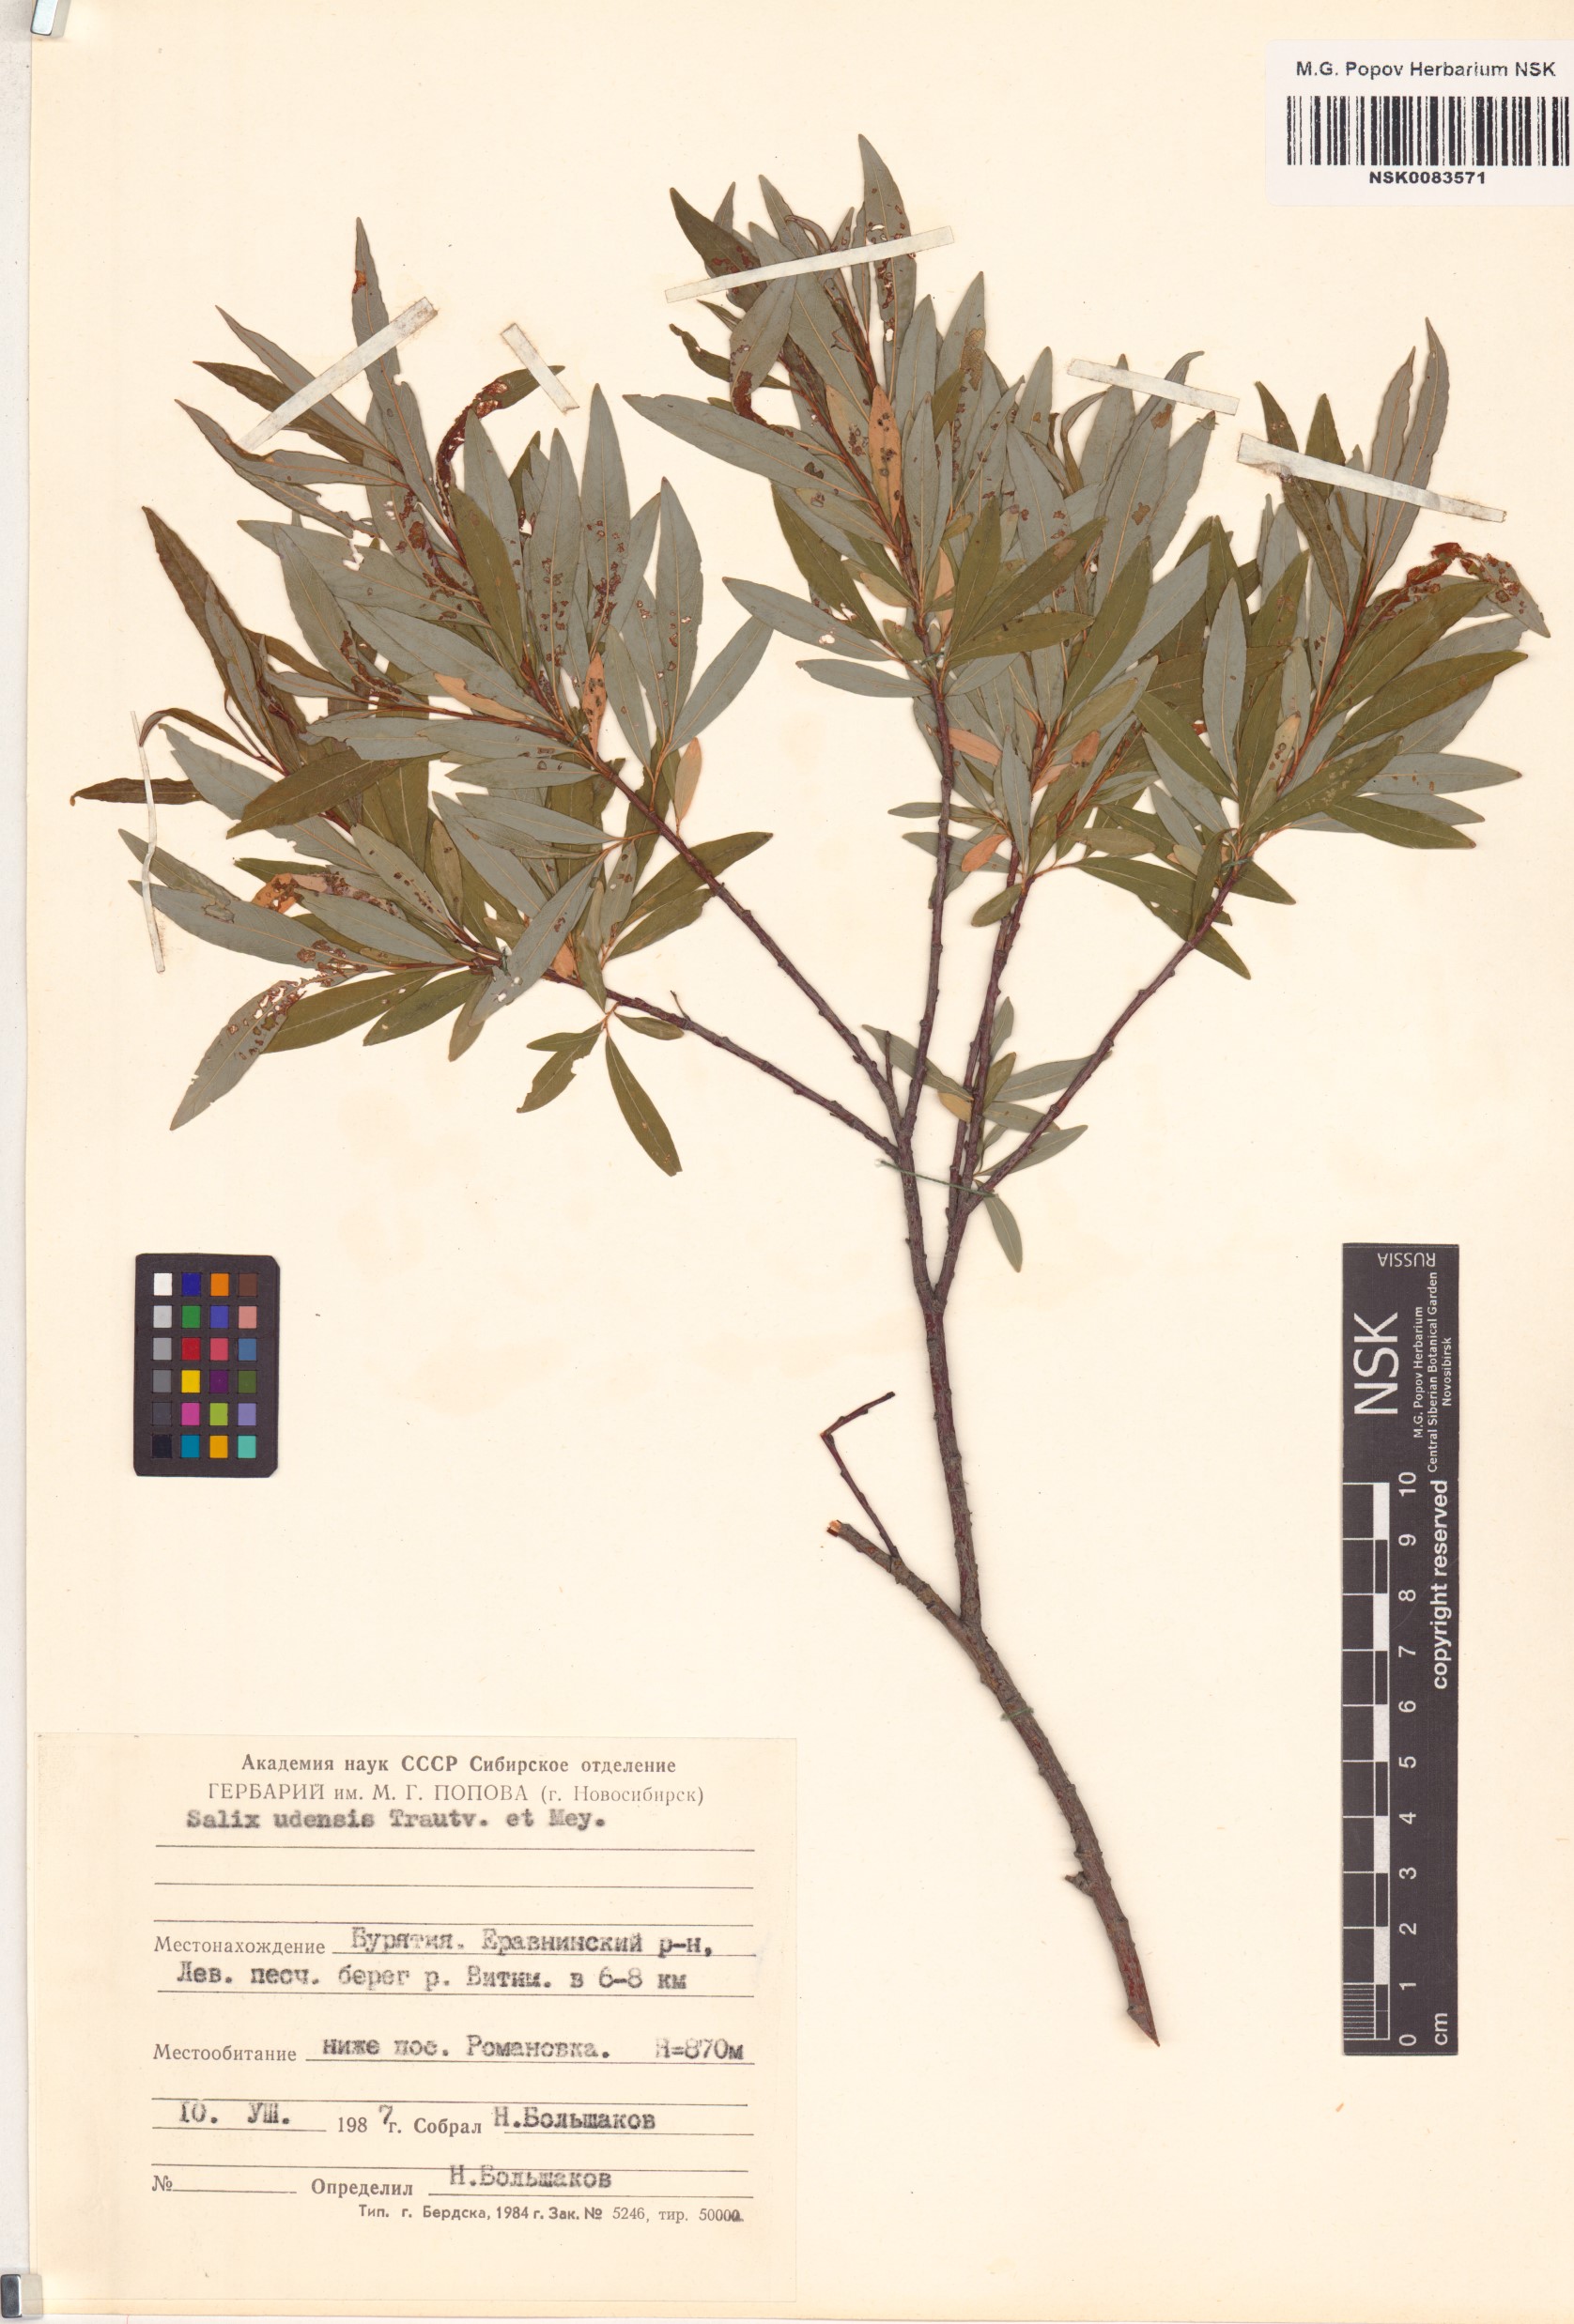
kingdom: Plantae
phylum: Tracheophyta
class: Magnoliopsida
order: Malpighiales
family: Salicaceae
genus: Salix
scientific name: Salix udensis
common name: Sachalin willow
